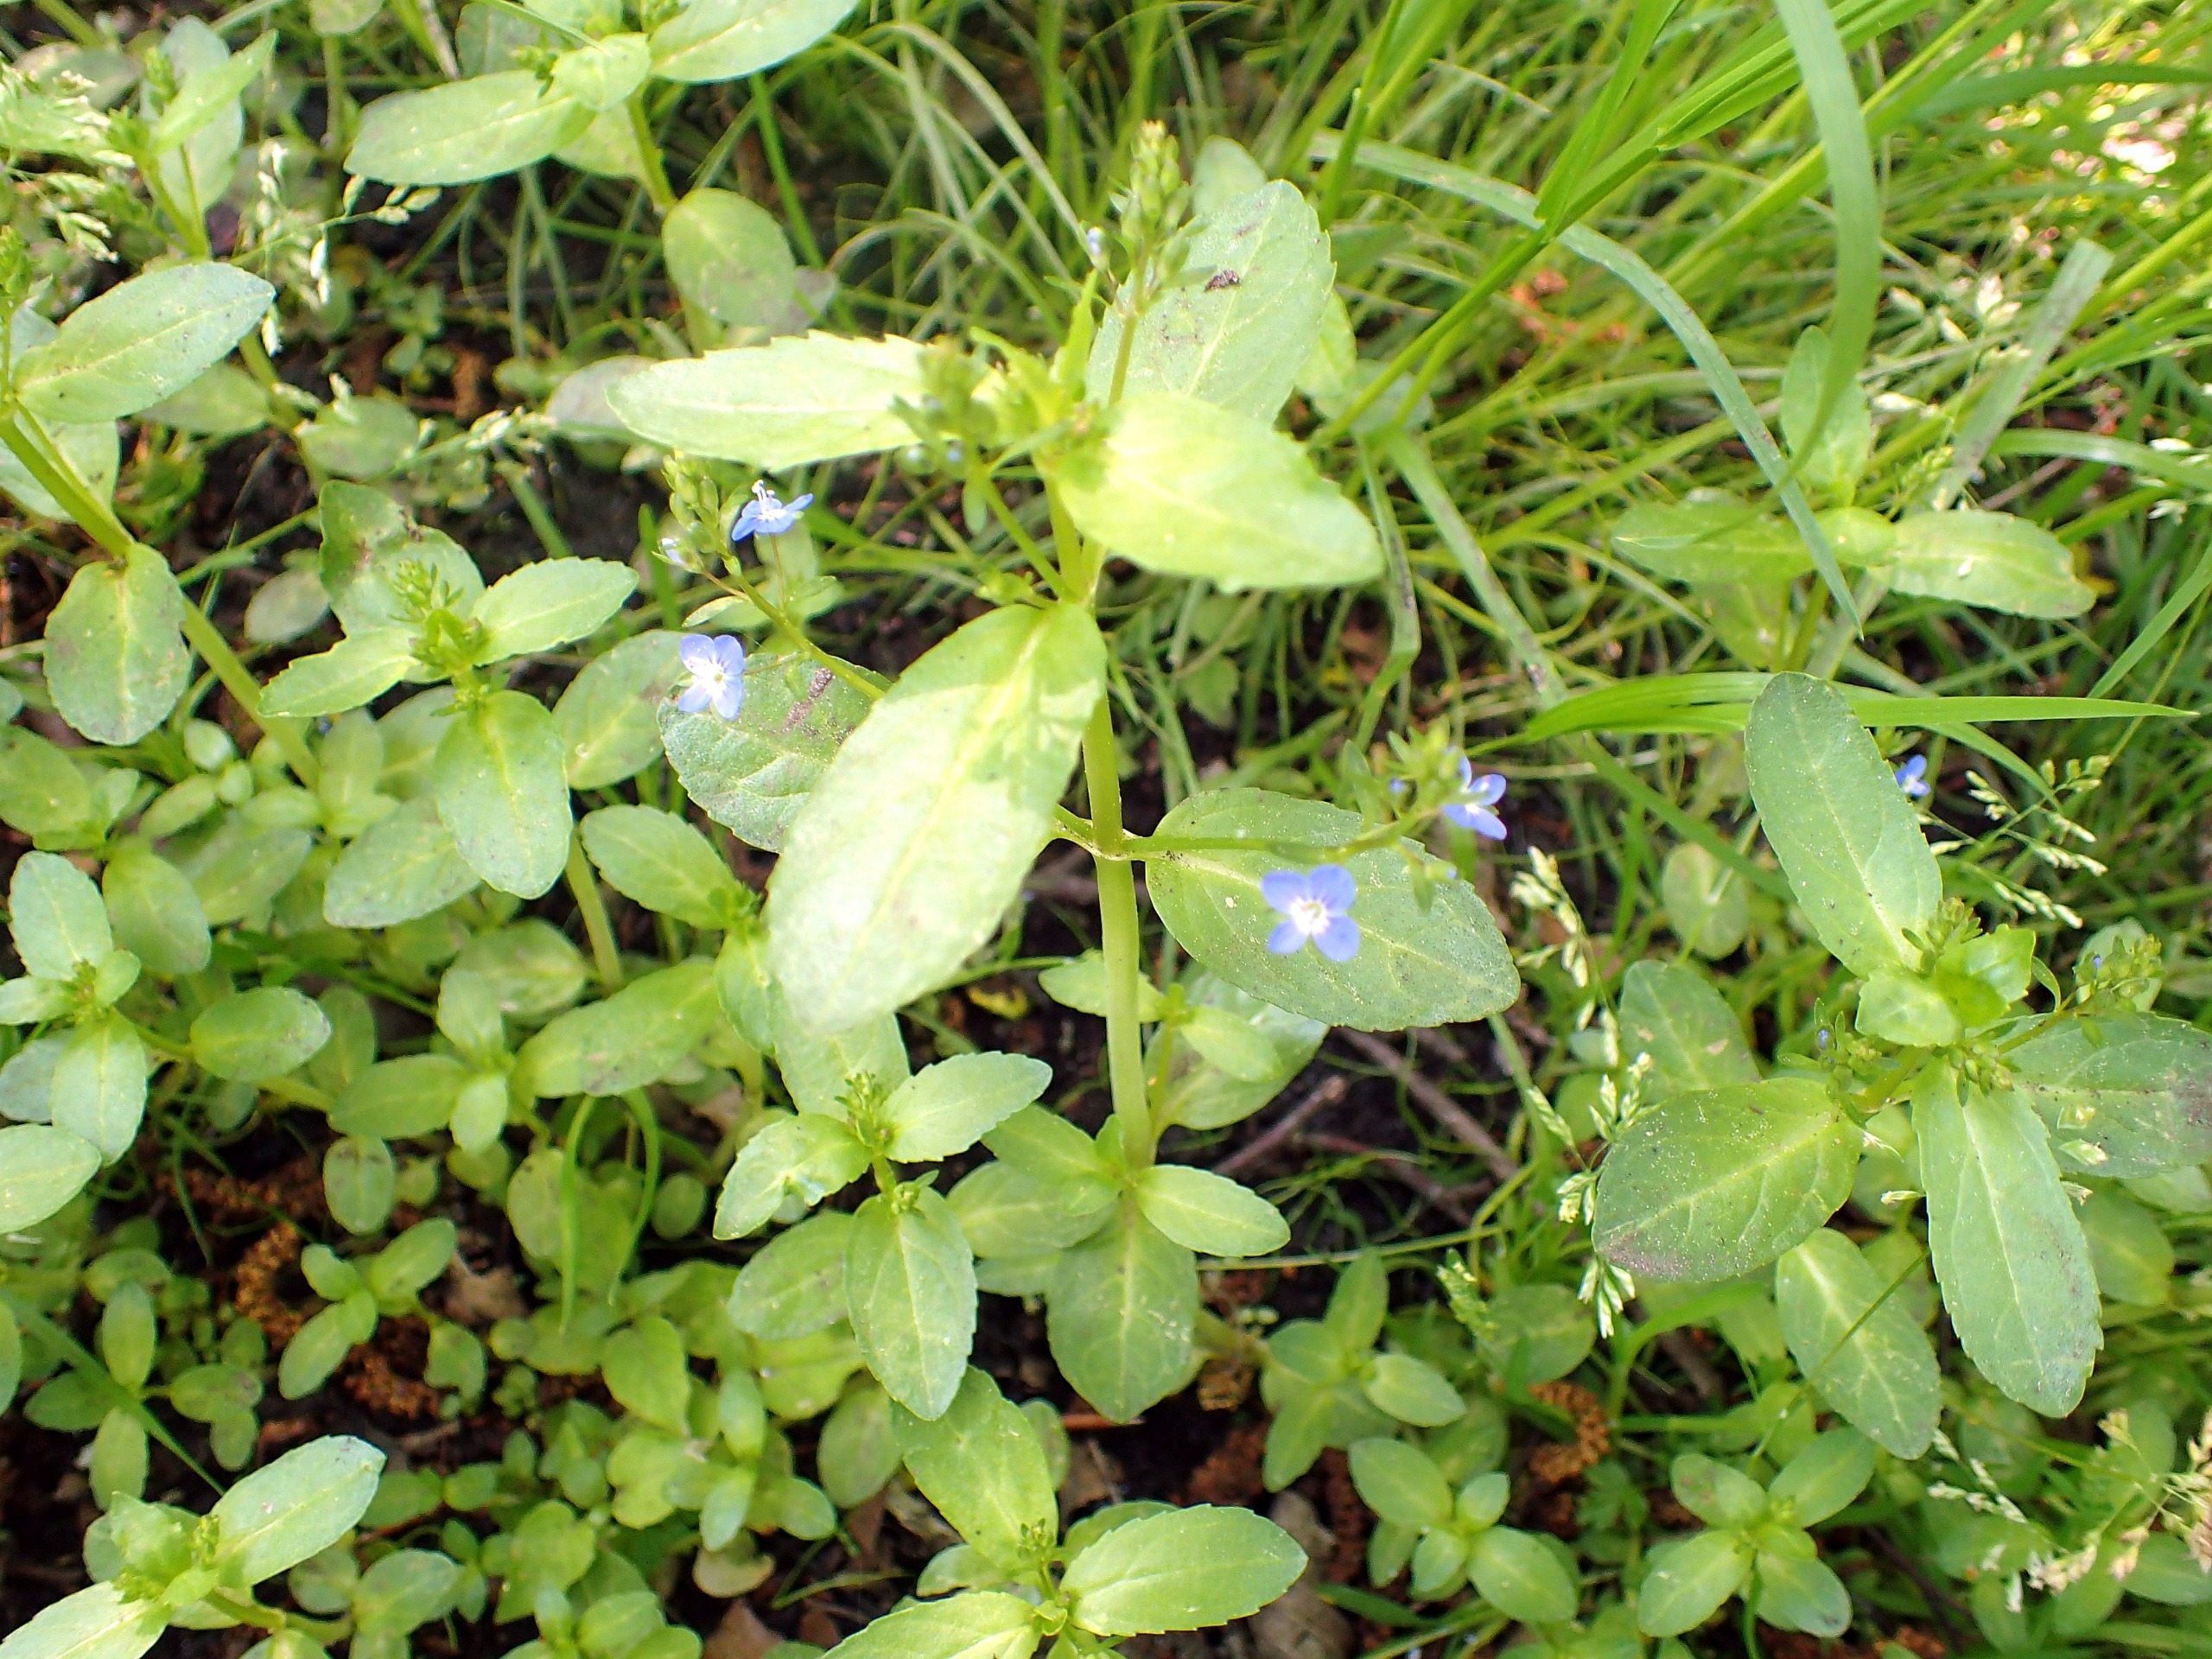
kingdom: Plantae
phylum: Tracheophyta
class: Magnoliopsida
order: Lamiales
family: Plantaginaceae
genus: Veronica
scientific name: Veronica beccabunga
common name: Tykbladet ærenpris
